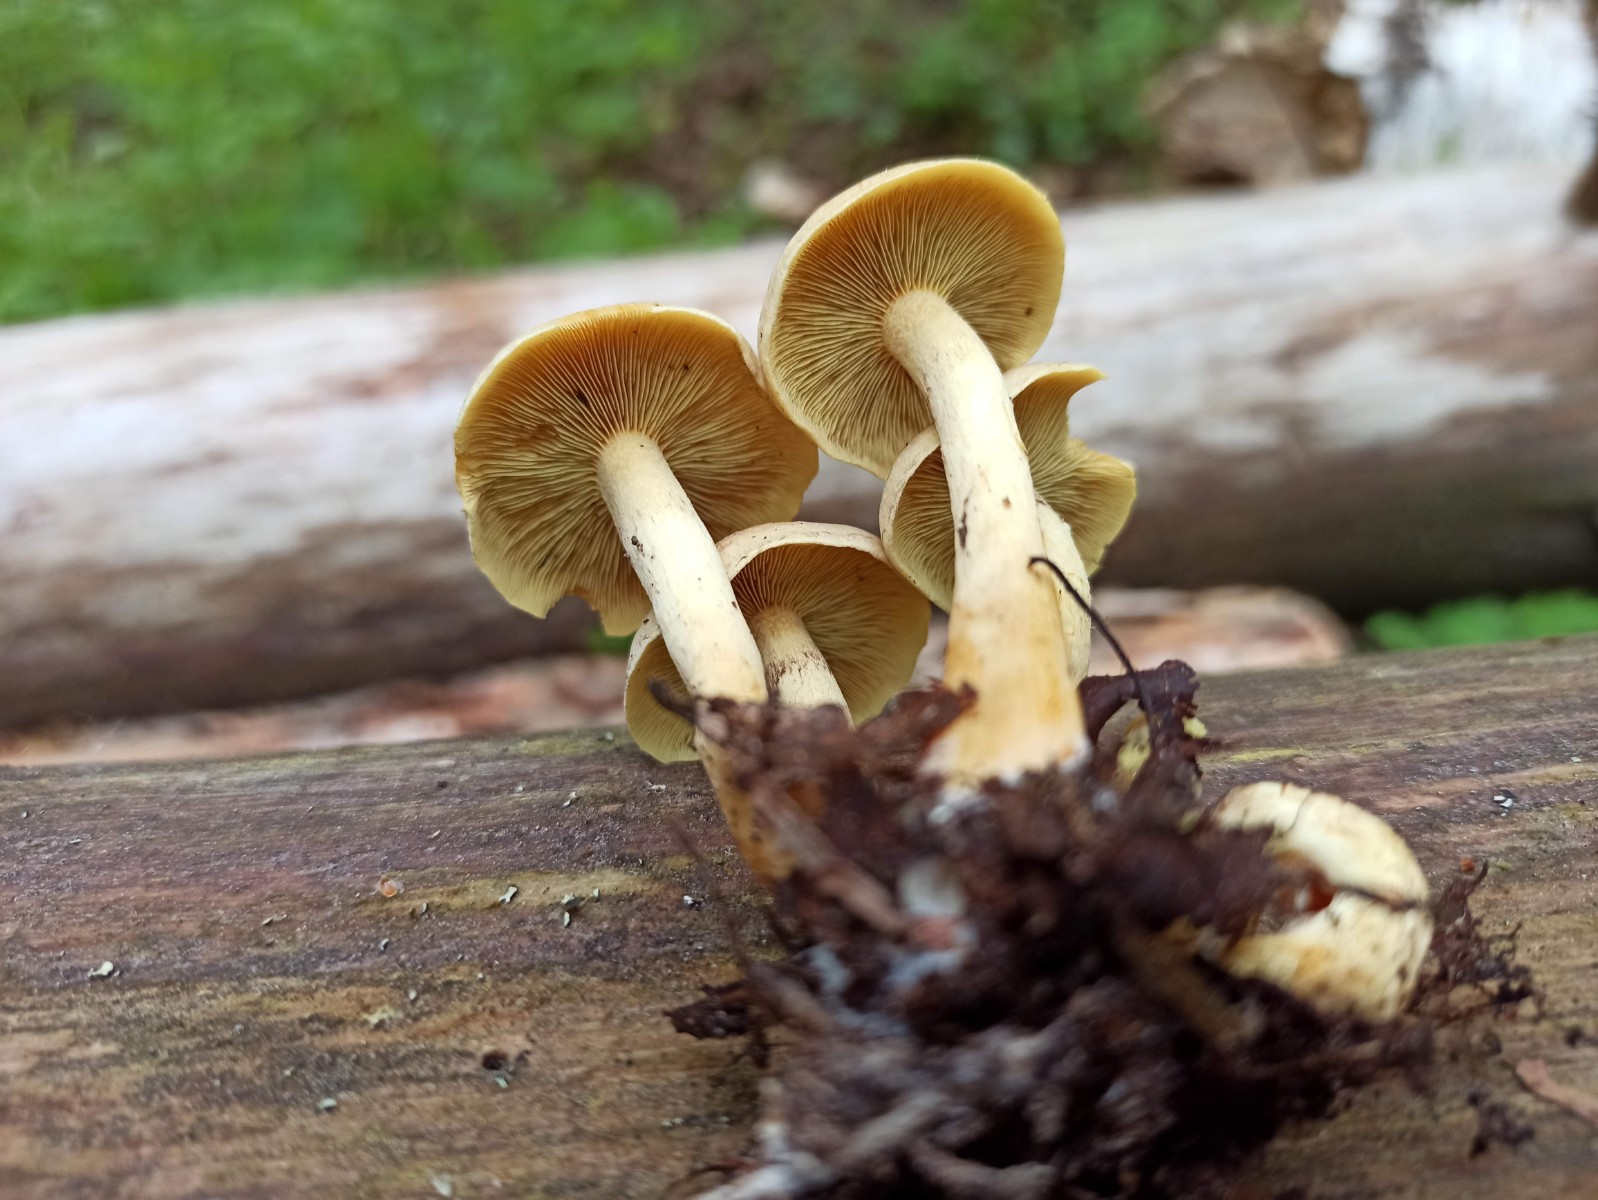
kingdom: Fungi
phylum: Basidiomycota
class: Agaricomycetes
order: Agaricales
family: Strophariaceae
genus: Hypholoma
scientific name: Hypholoma fasciculare
